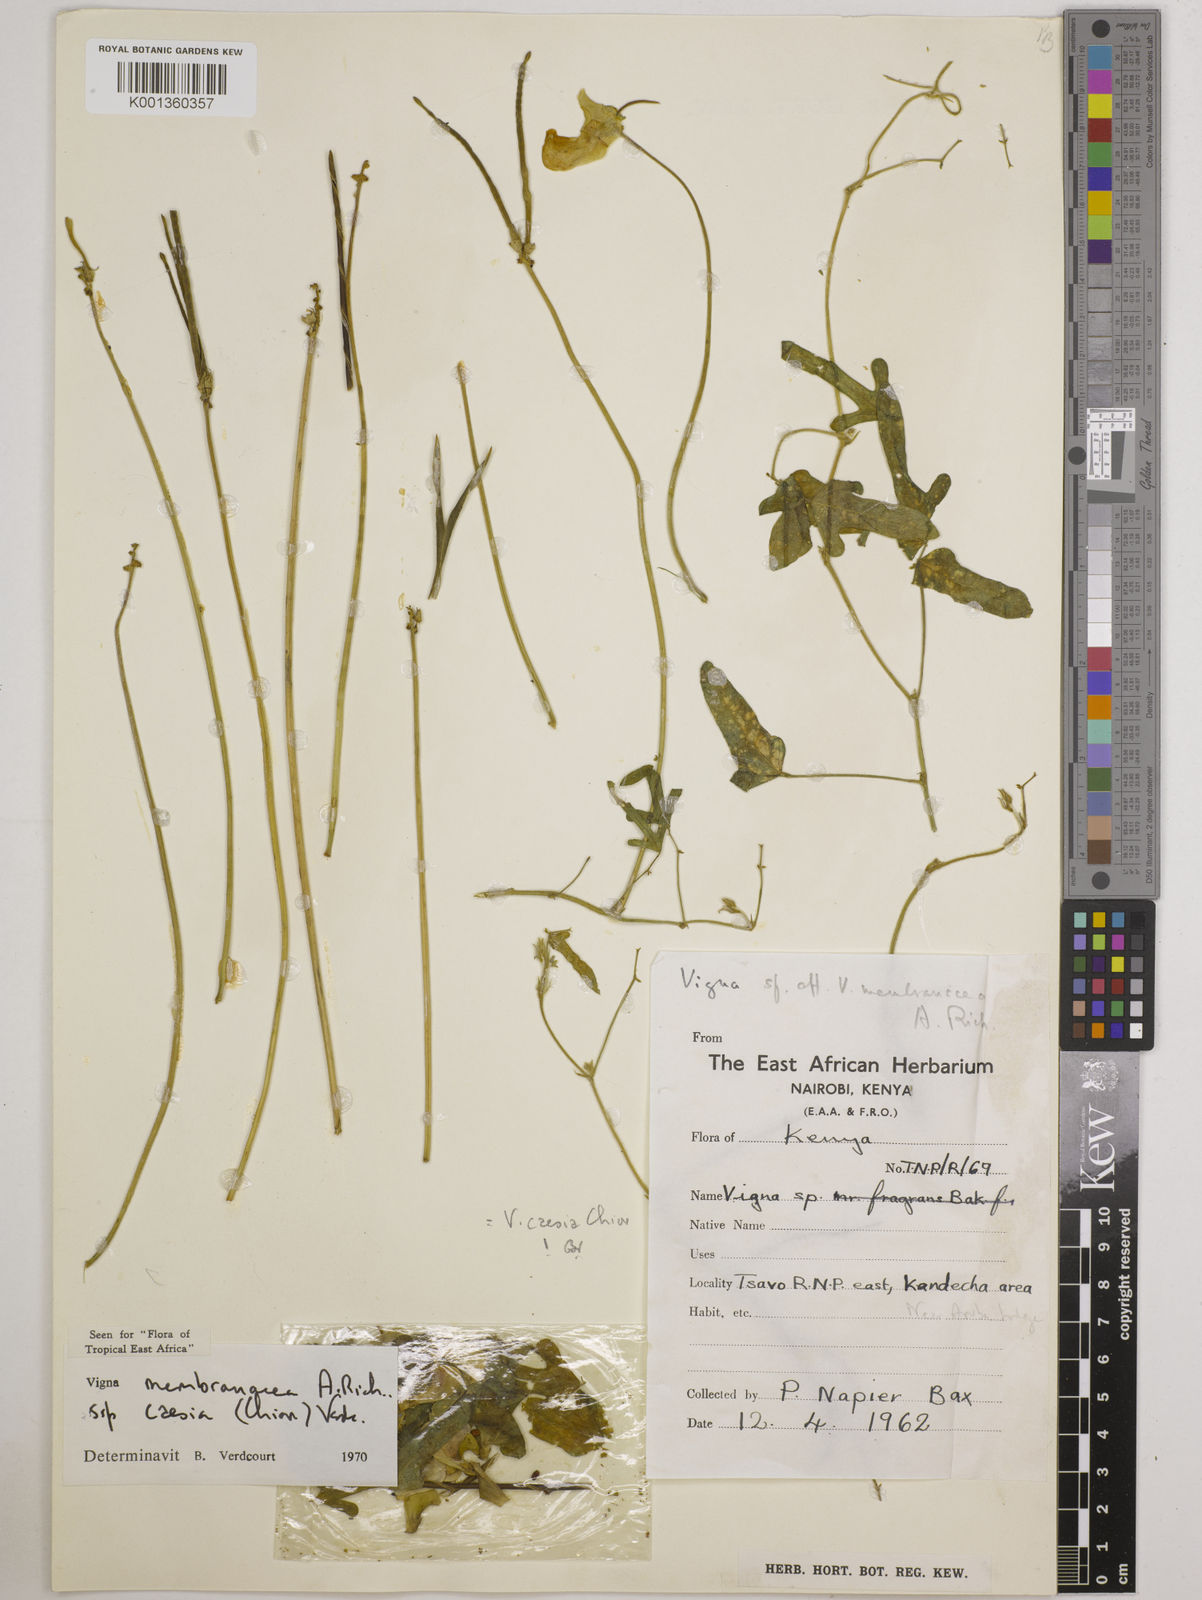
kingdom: Plantae
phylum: Tracheophyta
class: Magnoliopsida
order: Fabales
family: Fabaceae
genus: Vigna
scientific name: Vigna
